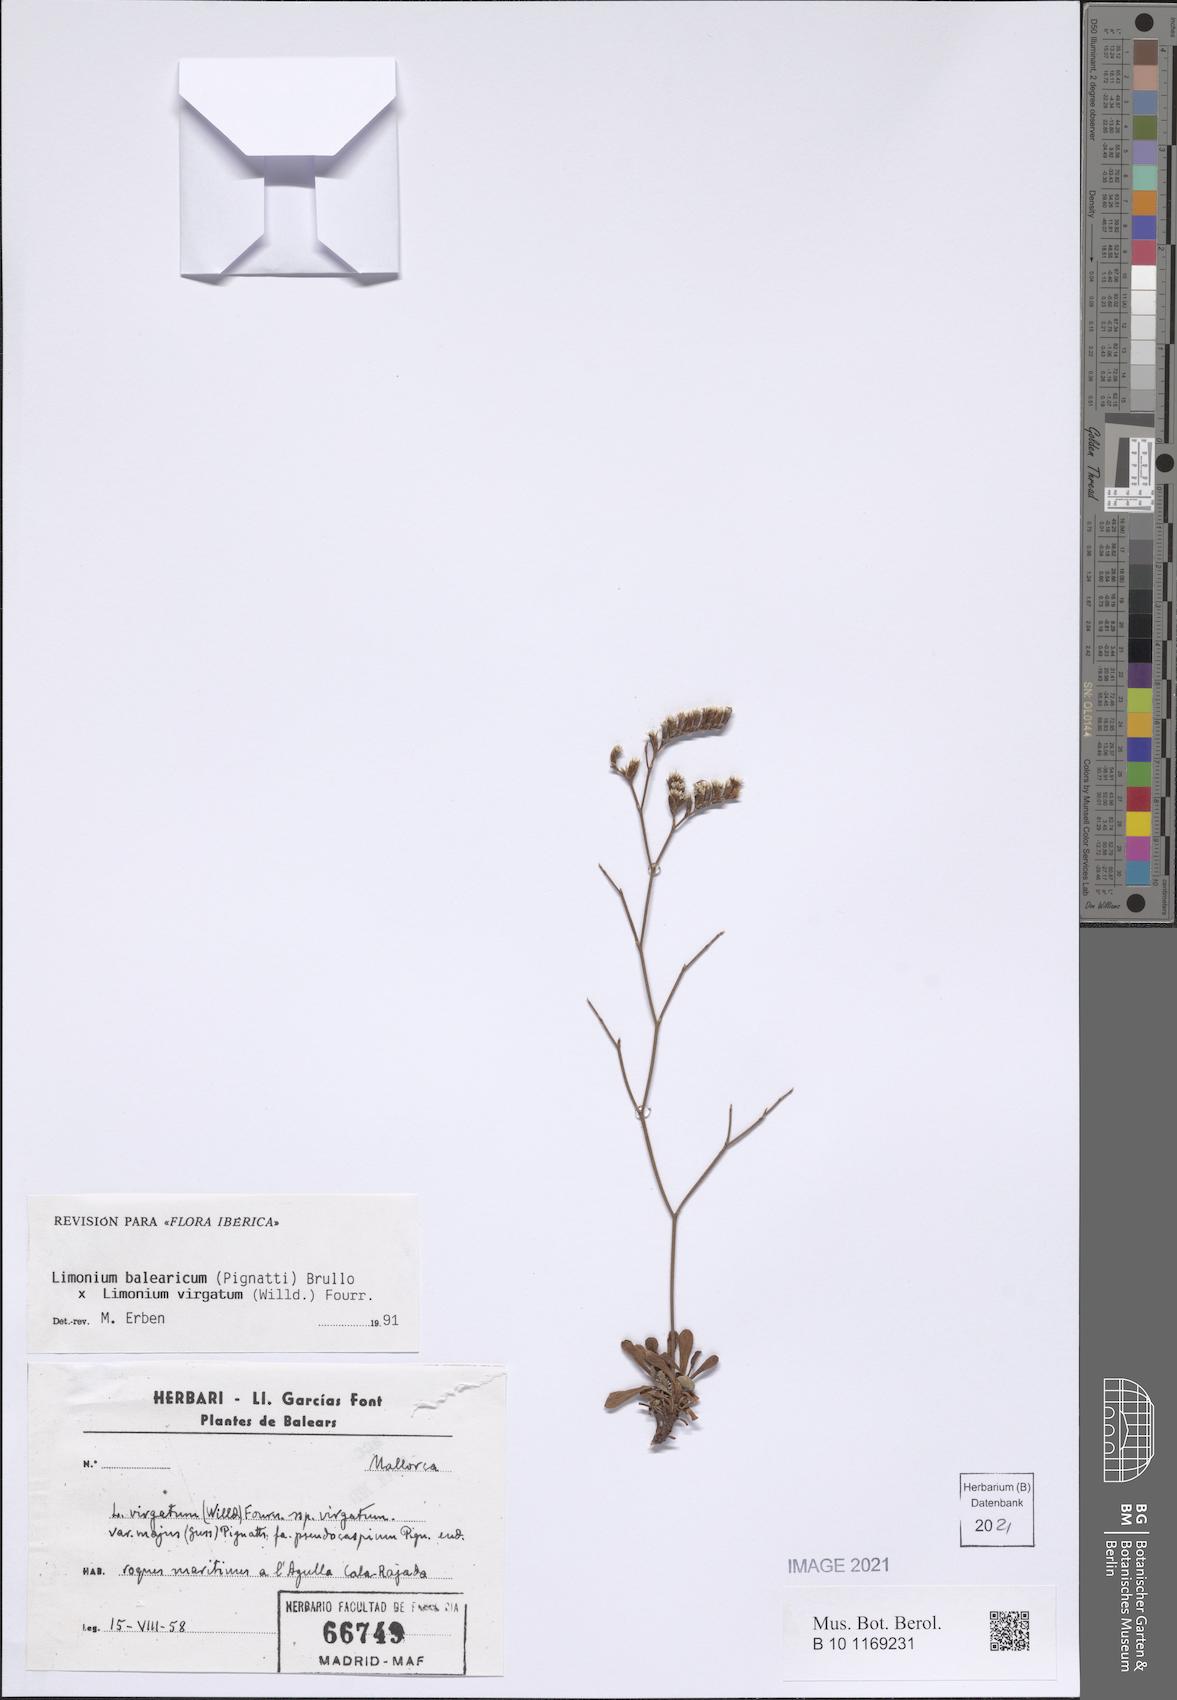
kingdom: Plantae
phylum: Tracheophyta
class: Magnoliopsida
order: Caryophyllales
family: Plumbaginaceae
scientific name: Plumbaginaceae
